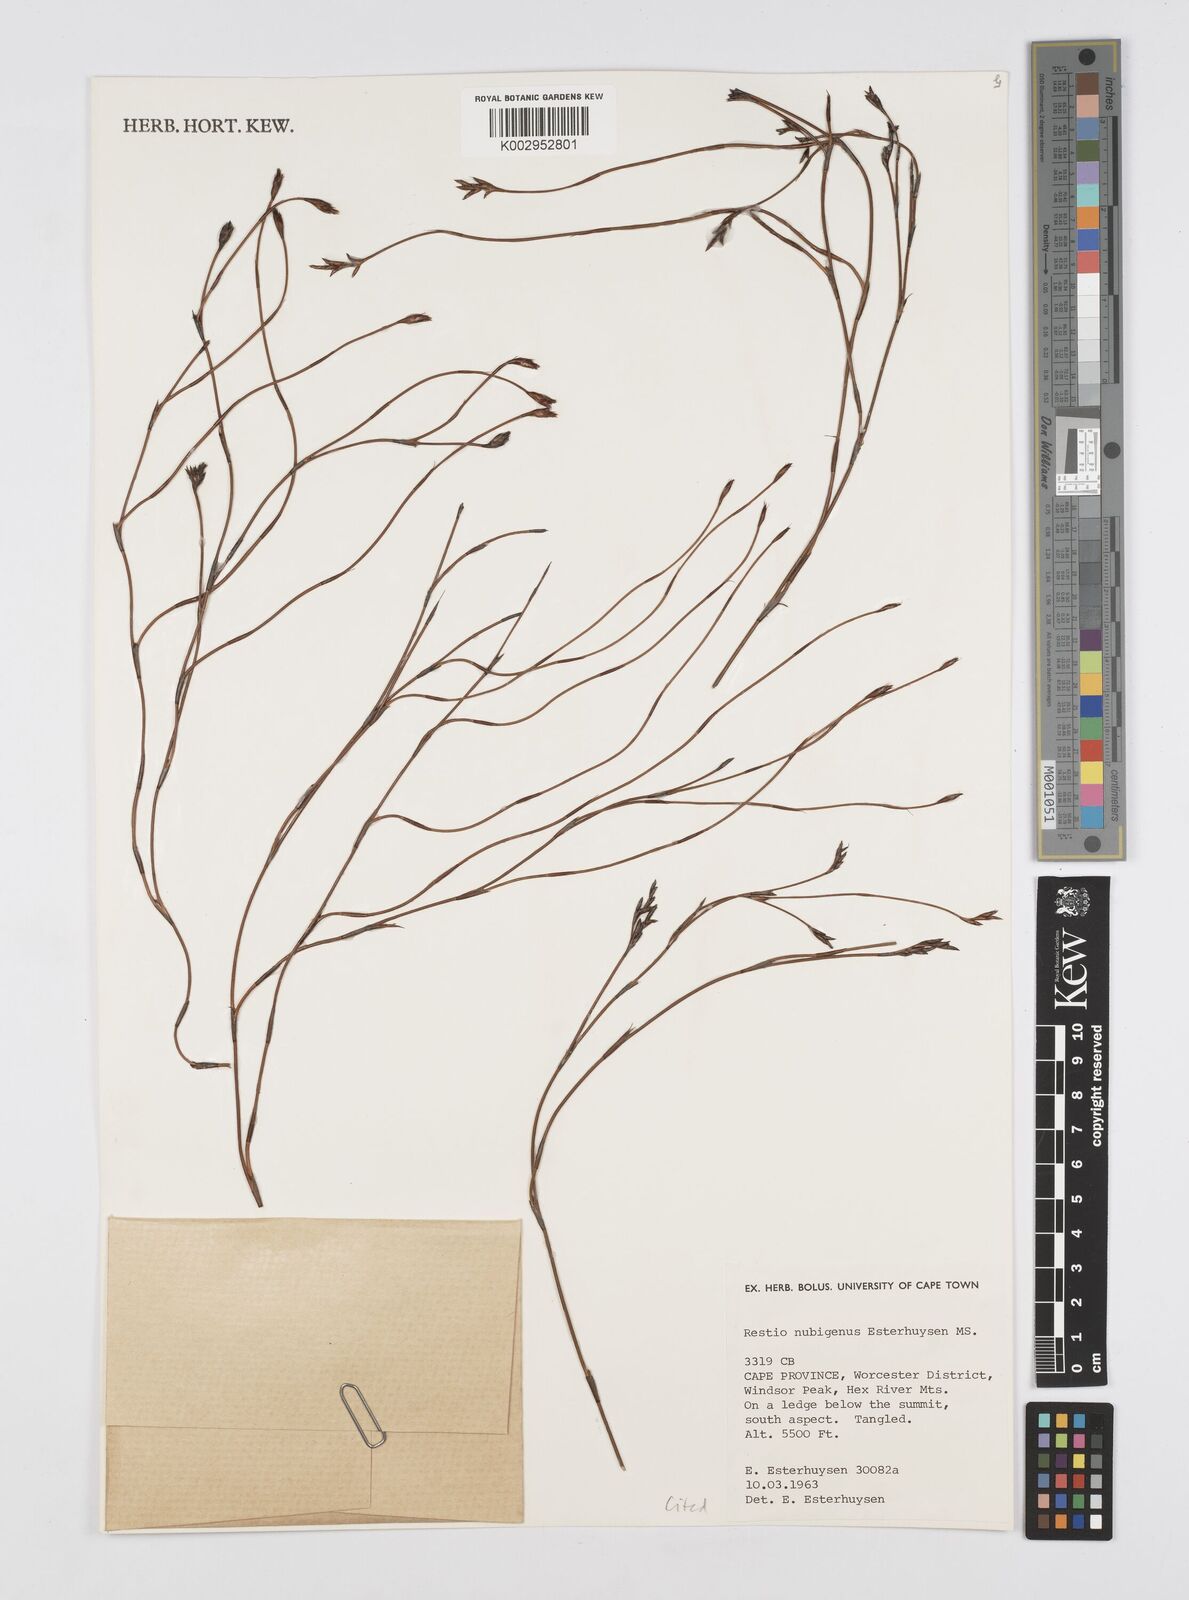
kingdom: Plantae
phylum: Tracheophyta
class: Liliopsida
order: Poales
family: Restionaceae
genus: Restio
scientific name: Restio nubigenus
